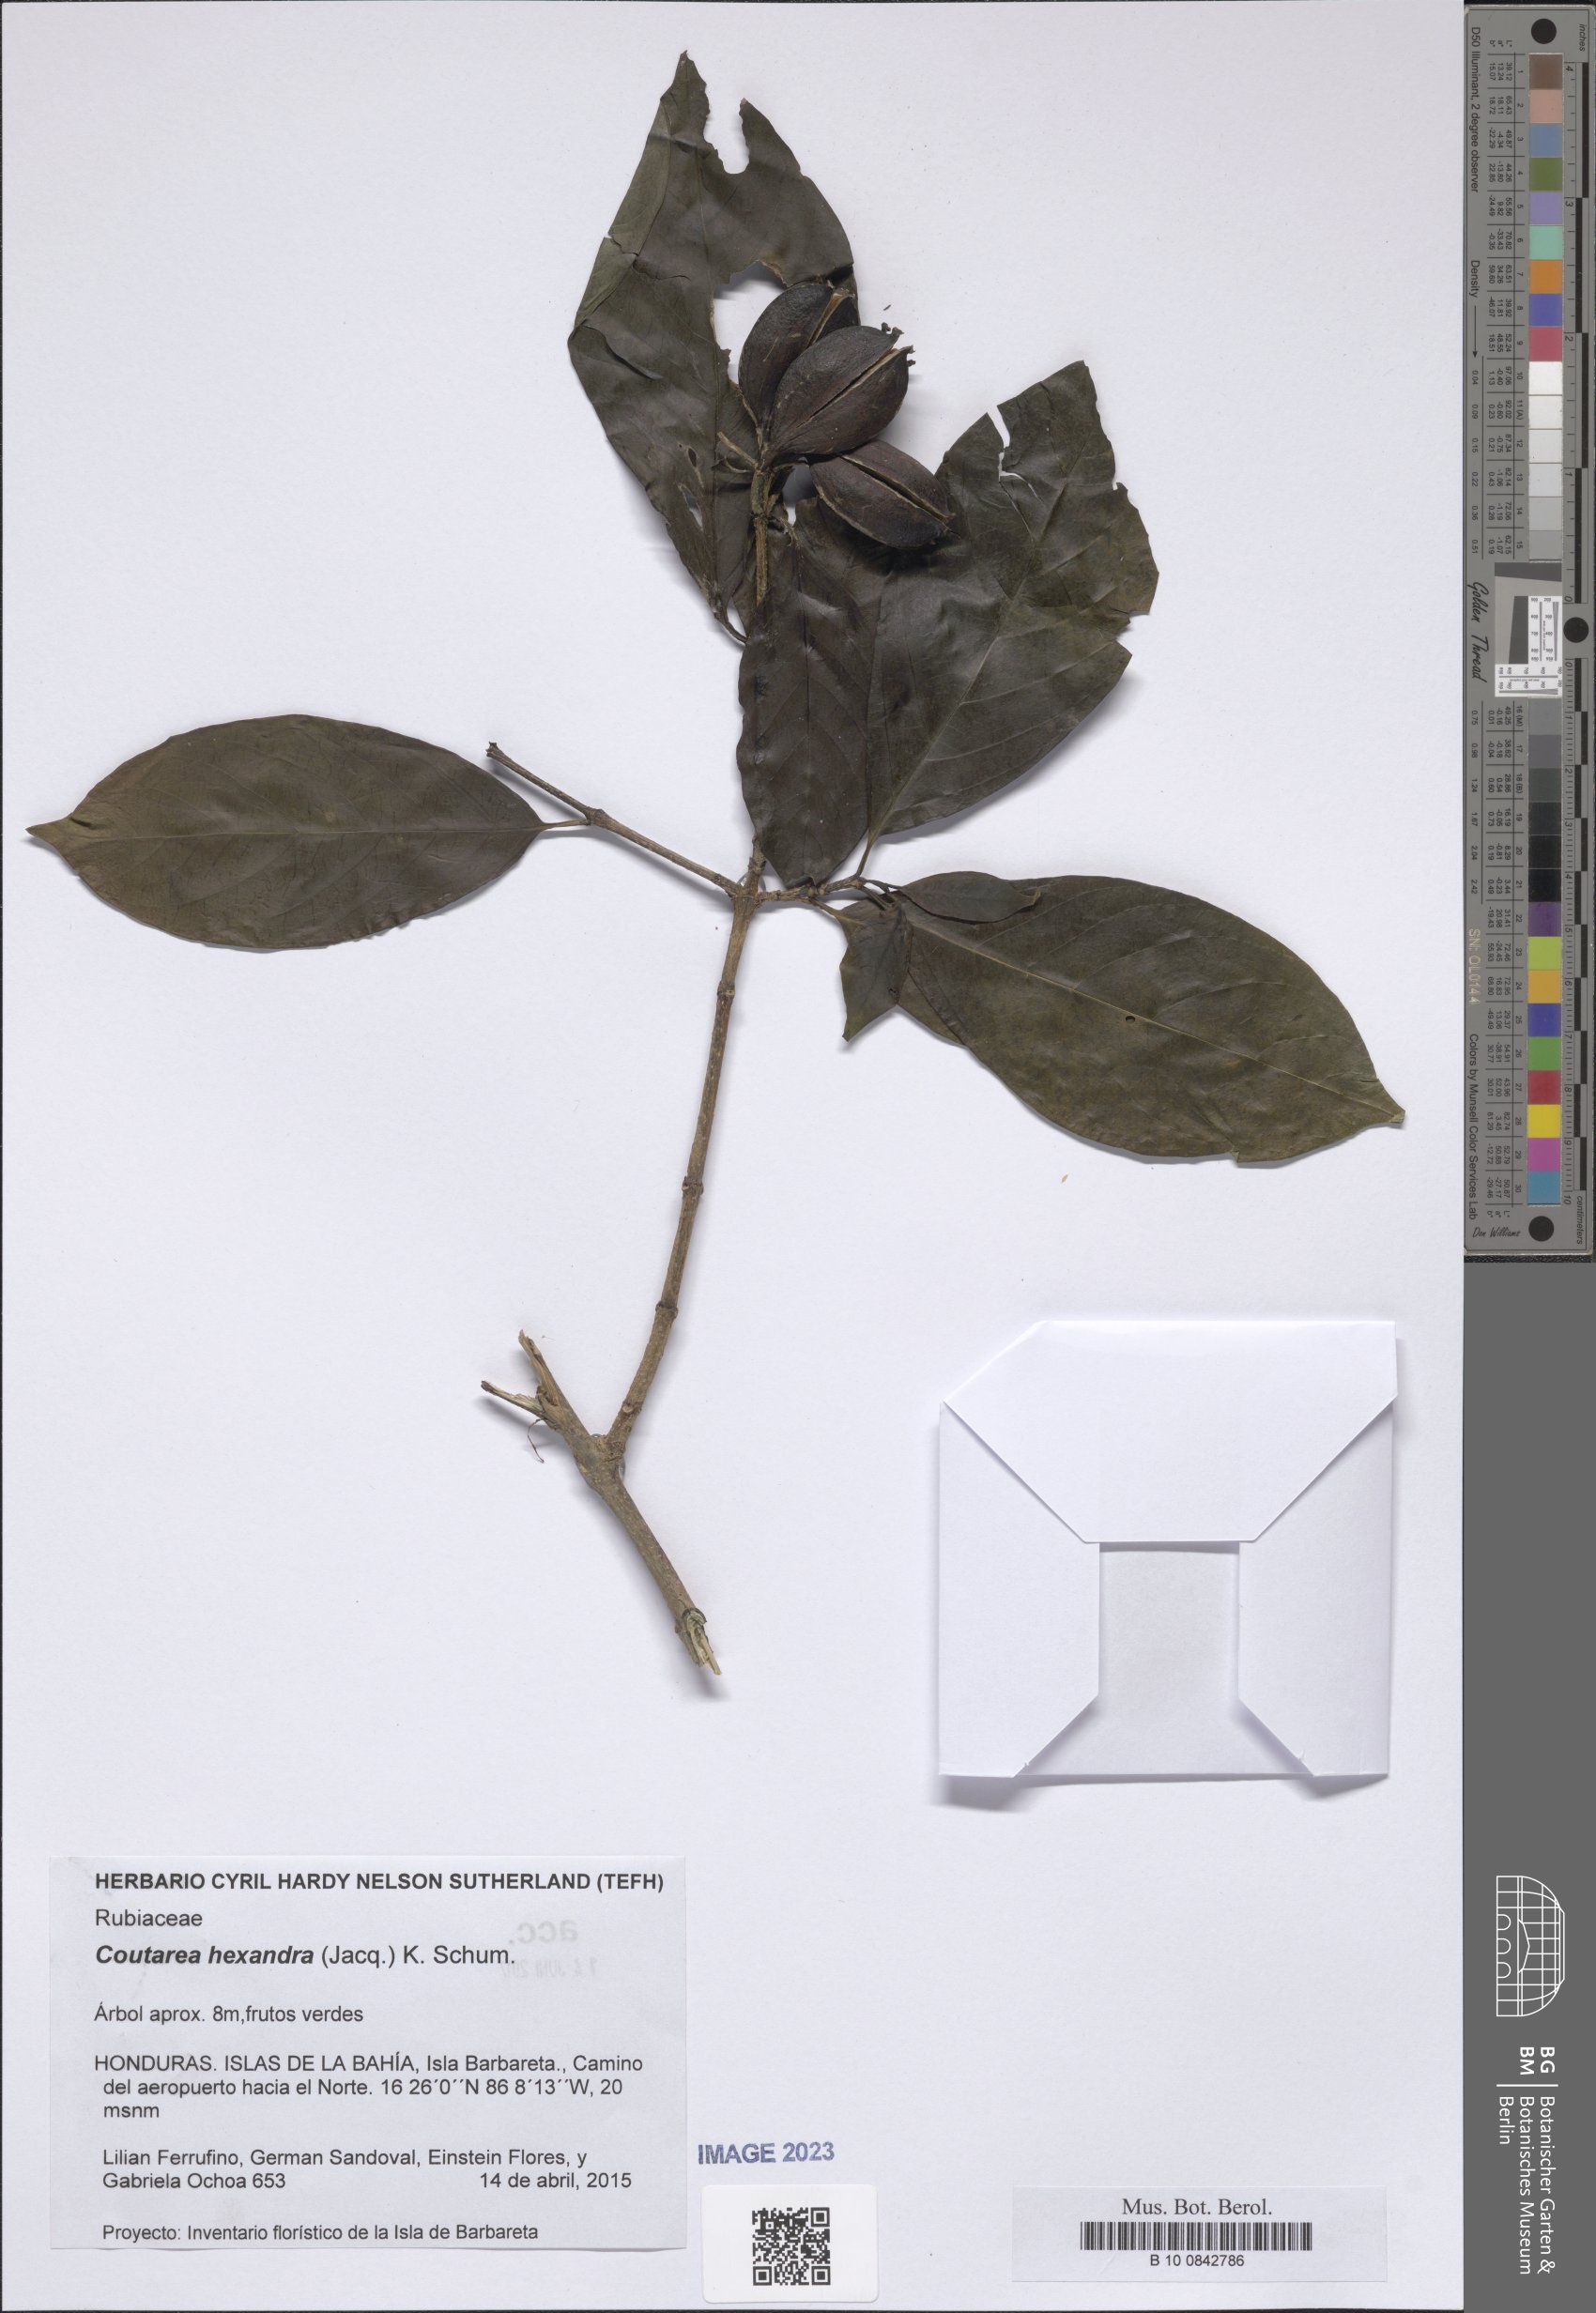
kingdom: Plantae
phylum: Tracheophyta
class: Magnoliopsida
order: Gentianales
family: Rubiaceae
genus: Coutarea
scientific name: Coutarea hexandra
